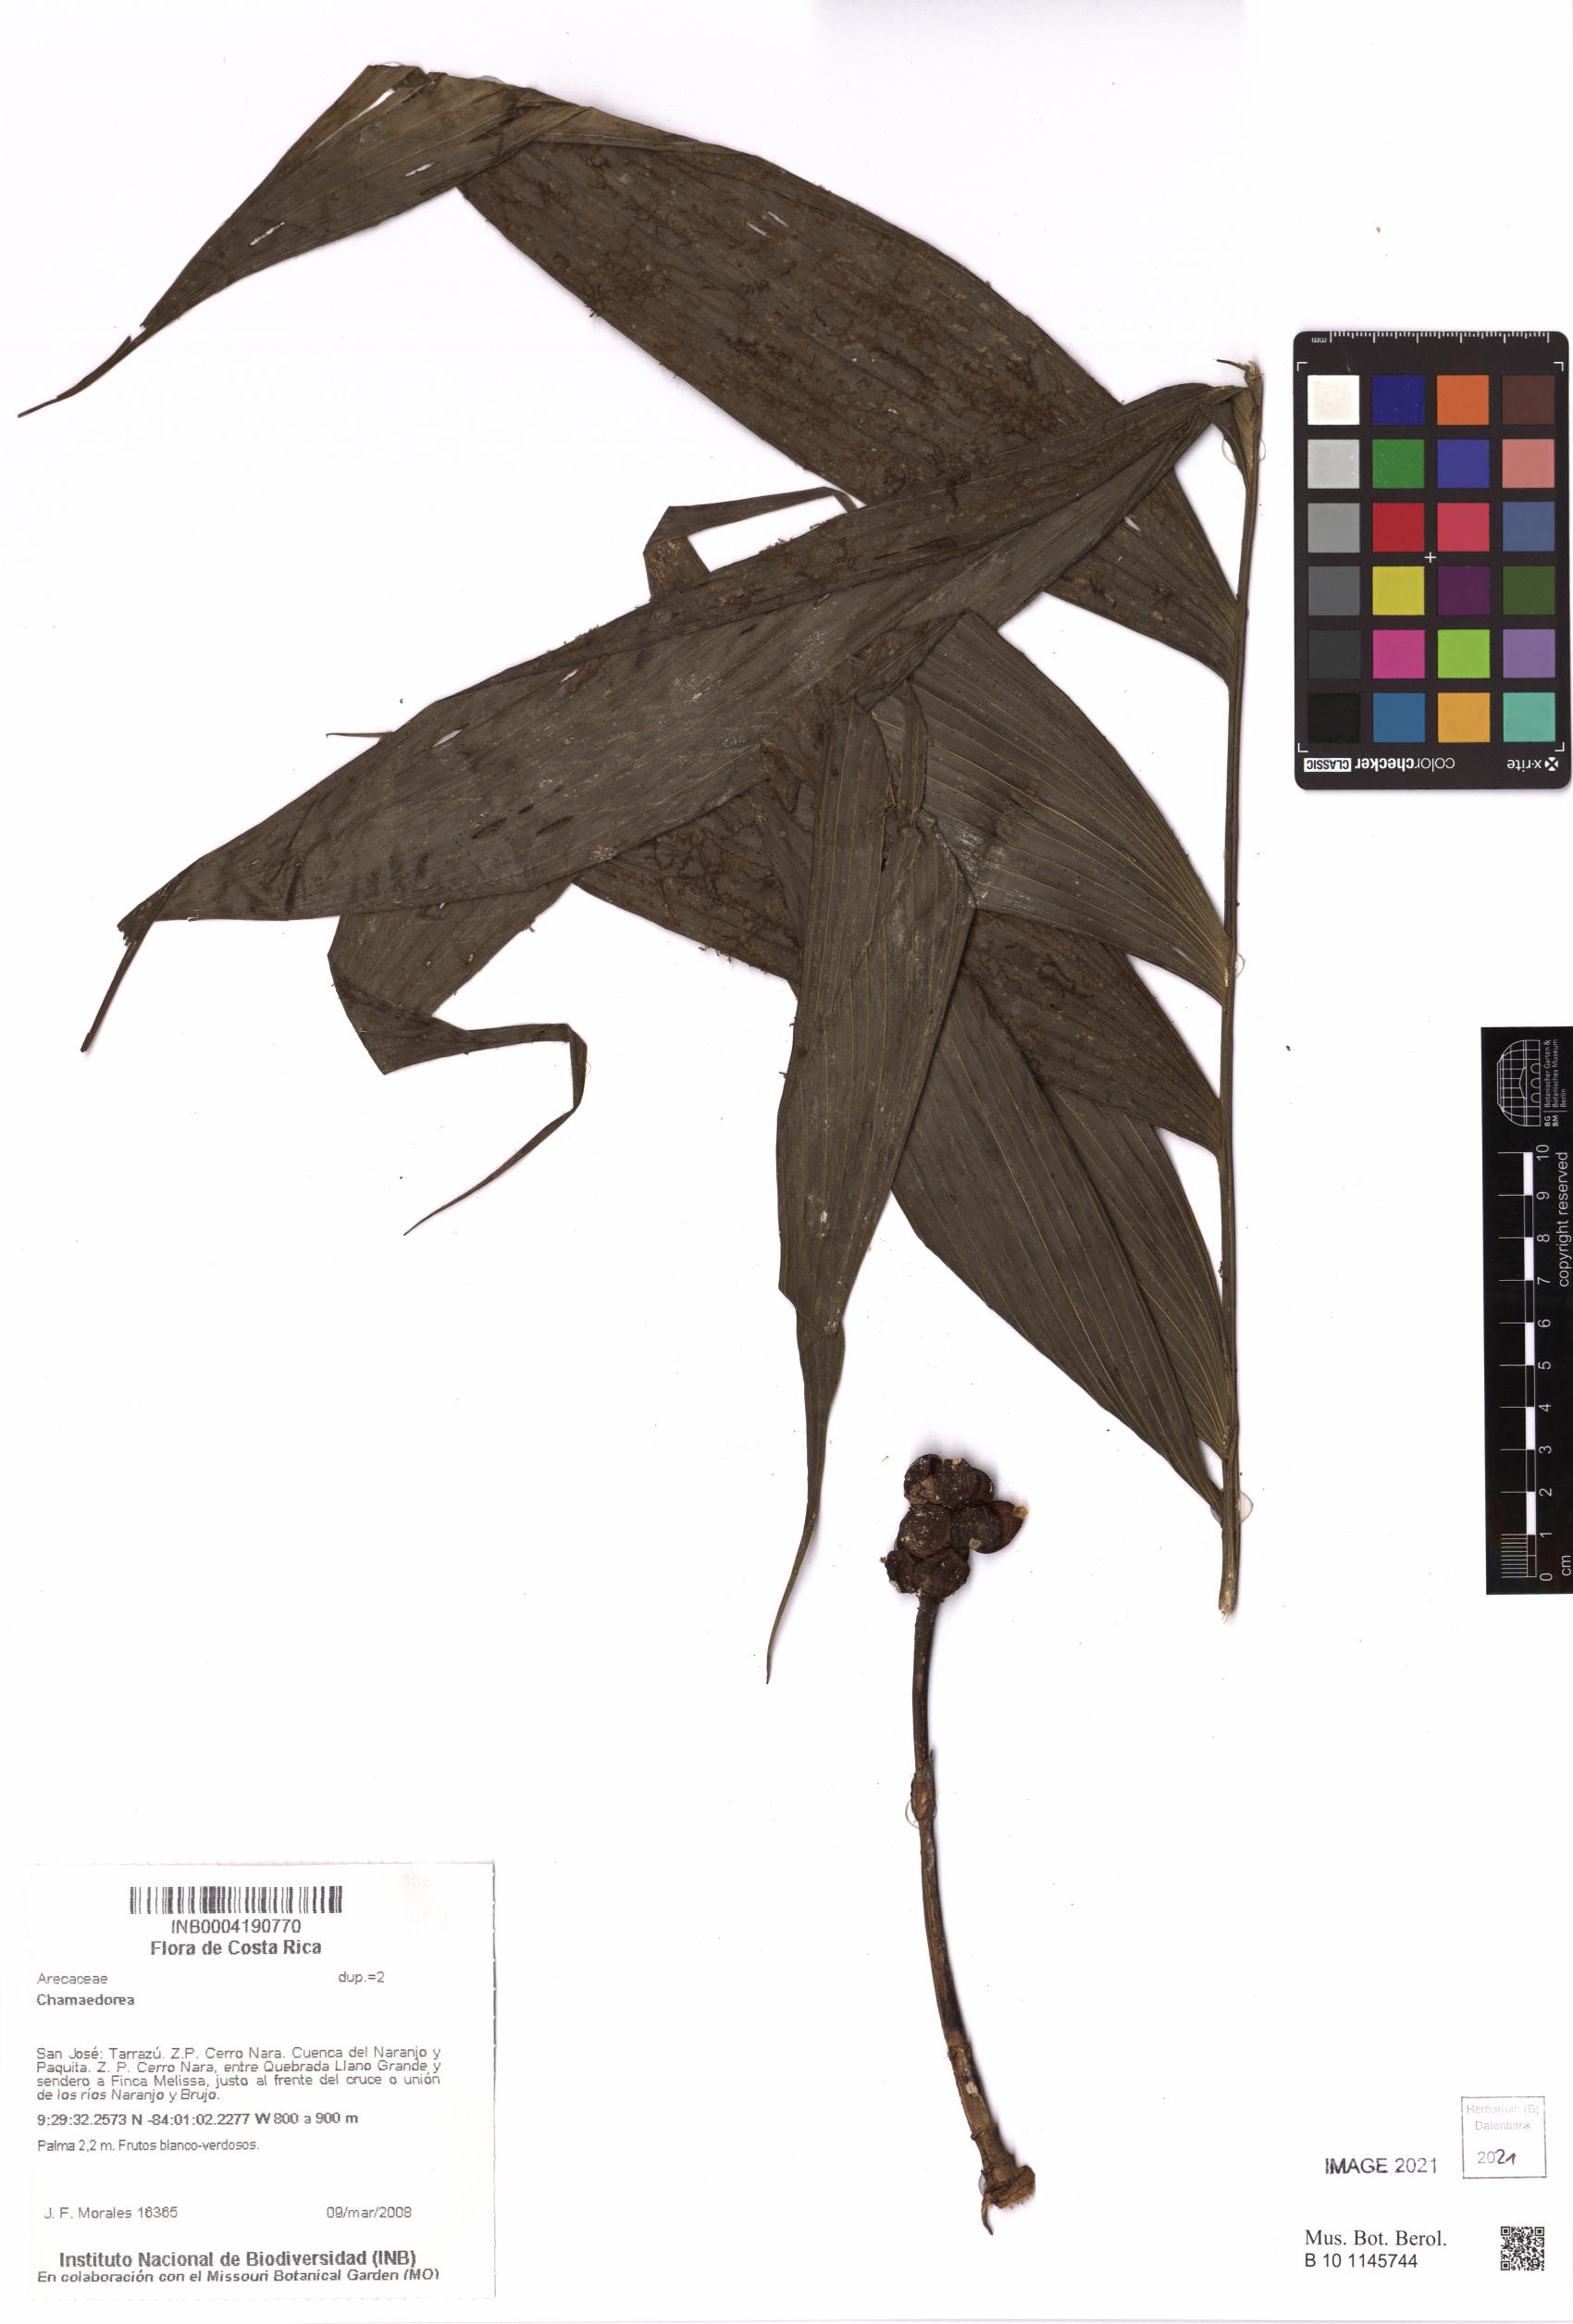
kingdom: Plantae
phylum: Tracheophyta
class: Liliopsida
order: Arecales
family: Arecaceae
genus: Chamaedorea
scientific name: Chamaedorea
